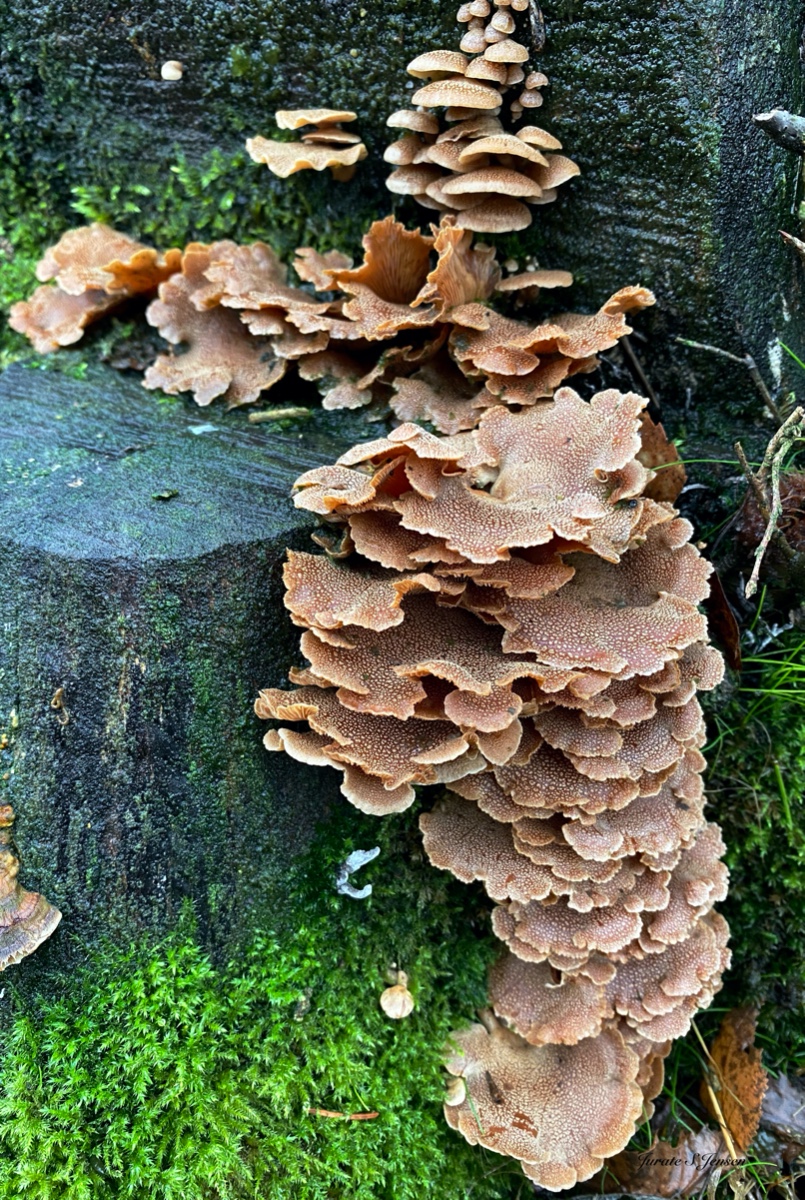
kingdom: Fungi
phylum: Basidiomycota
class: Agaricomycetes
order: Agaricales
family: Mycenaceae
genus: Panellus
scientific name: Panellus stipticus
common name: kliddet epaulethat
